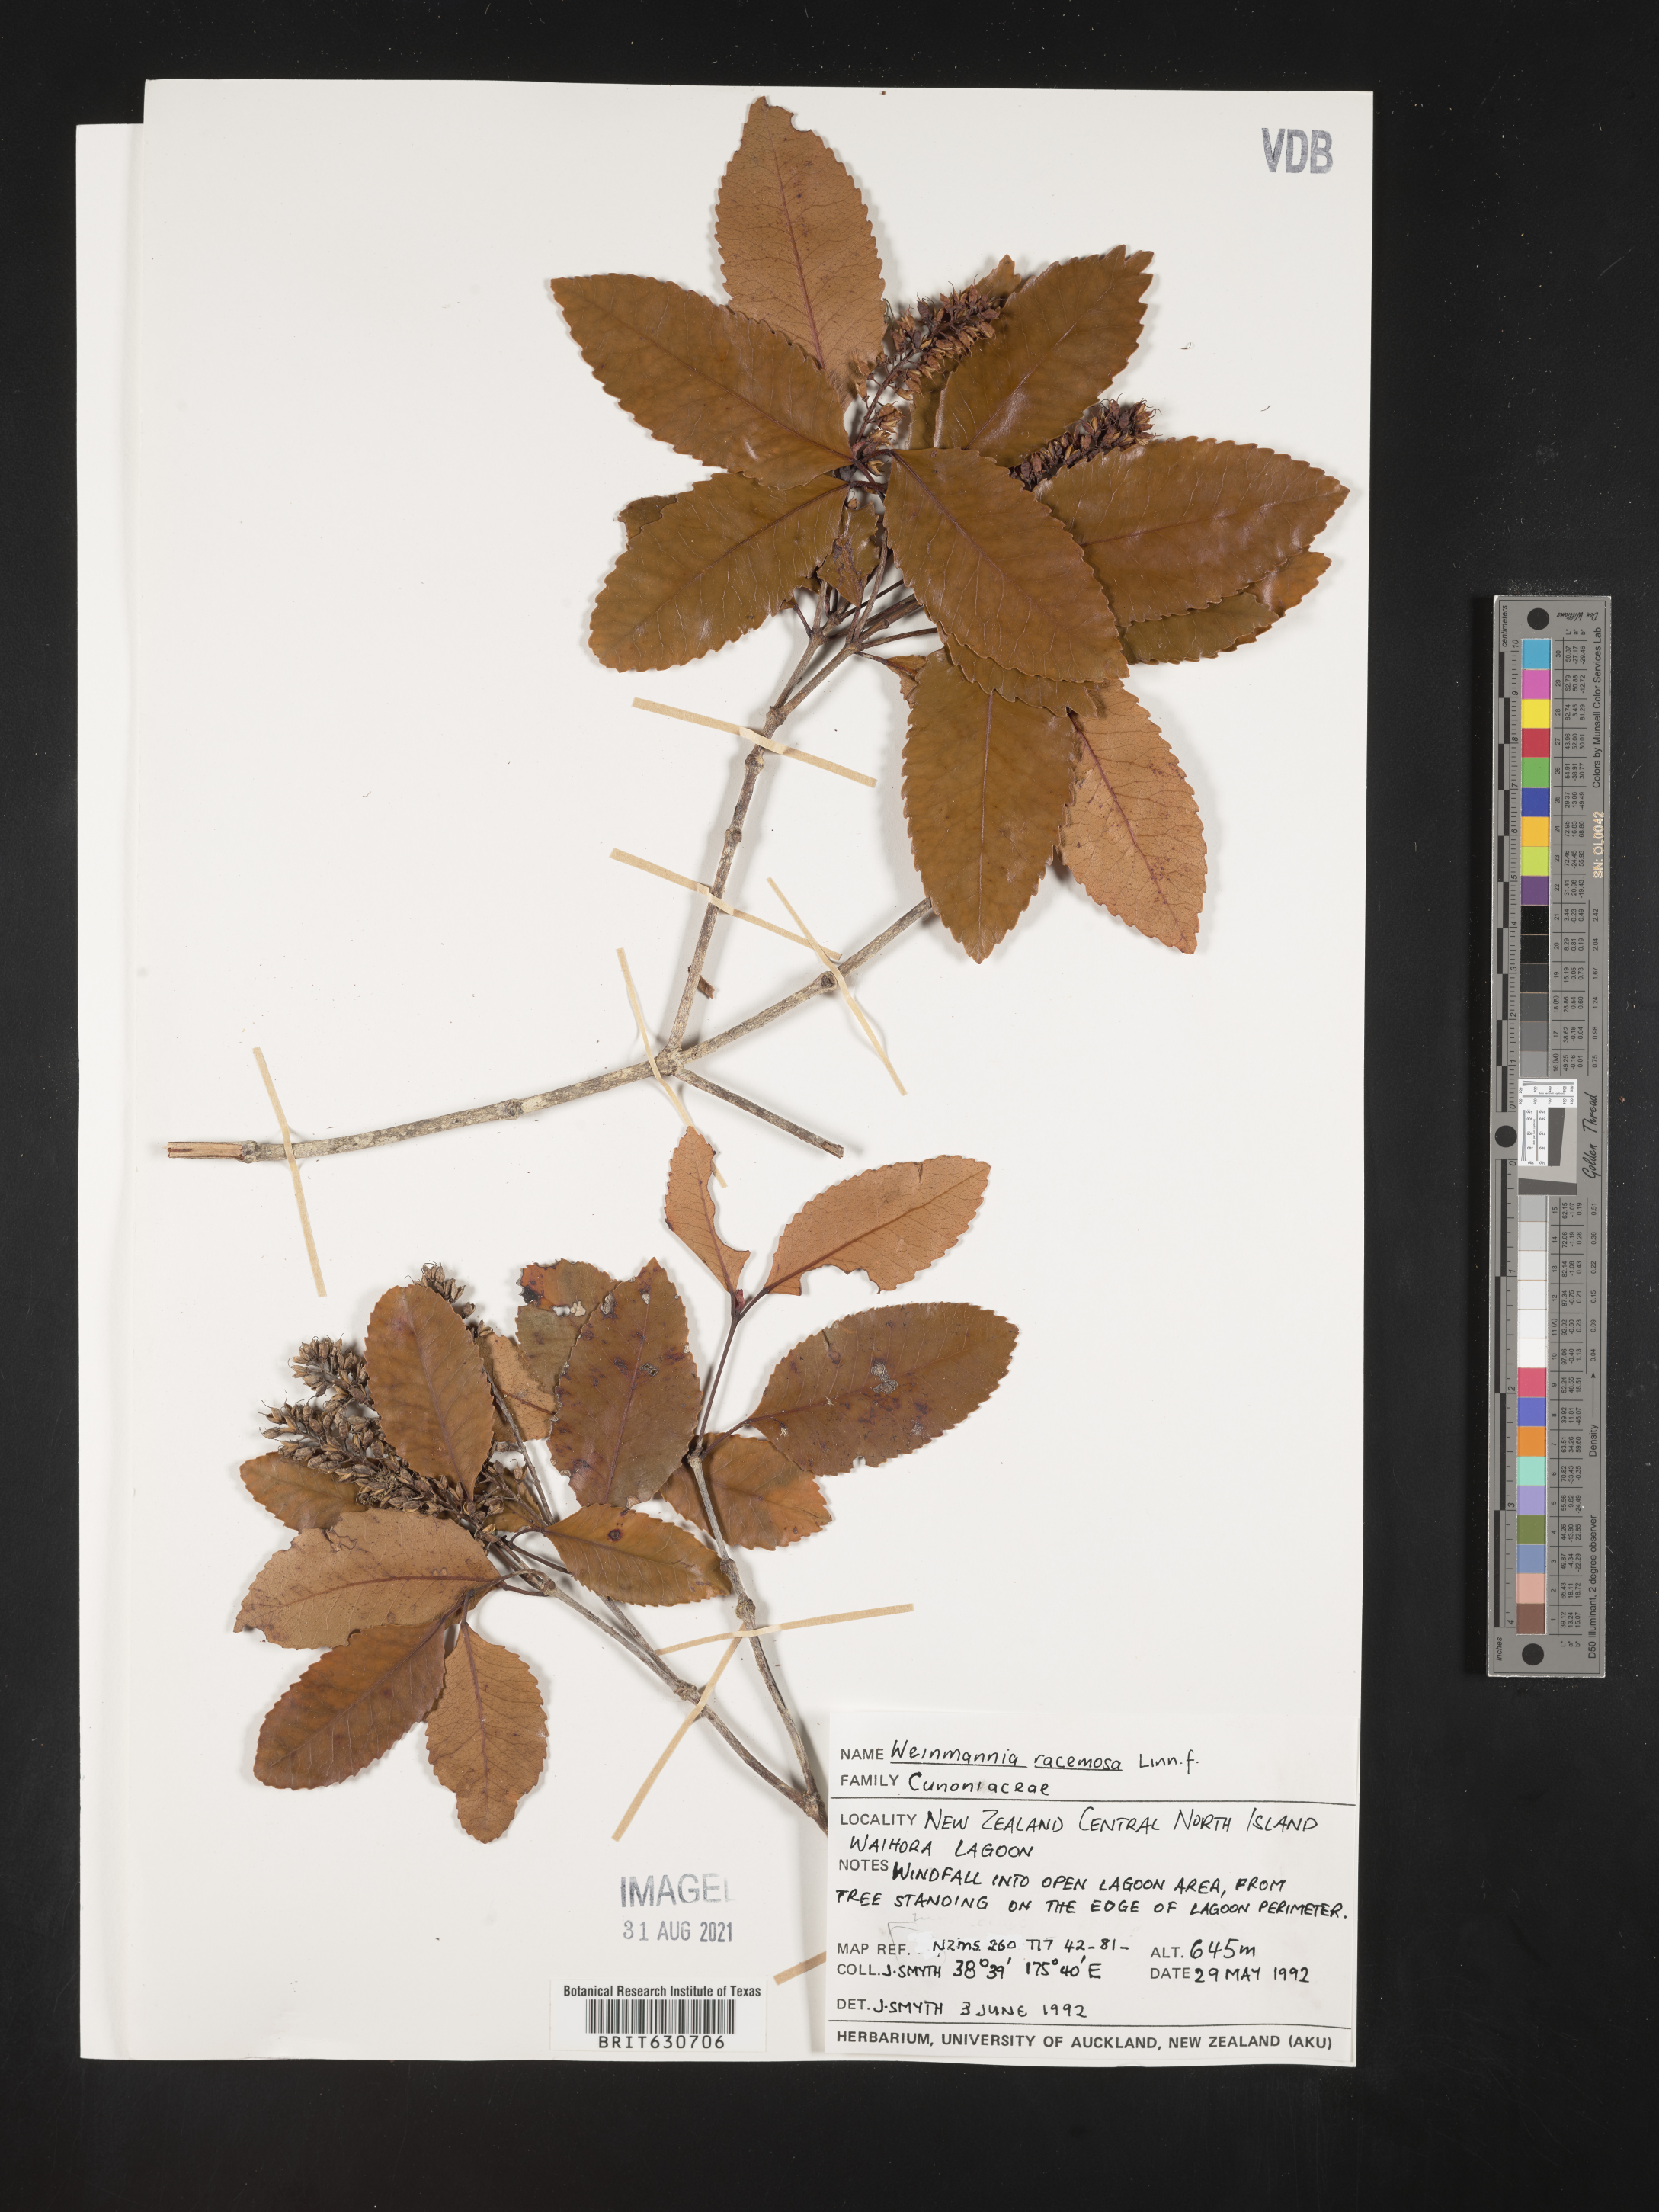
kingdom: Plantae
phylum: Tracheophyta
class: Magnoliopsida
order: Oxalidales
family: Cunoniaceae
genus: Pterophylla
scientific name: Pterophylla racemosa
